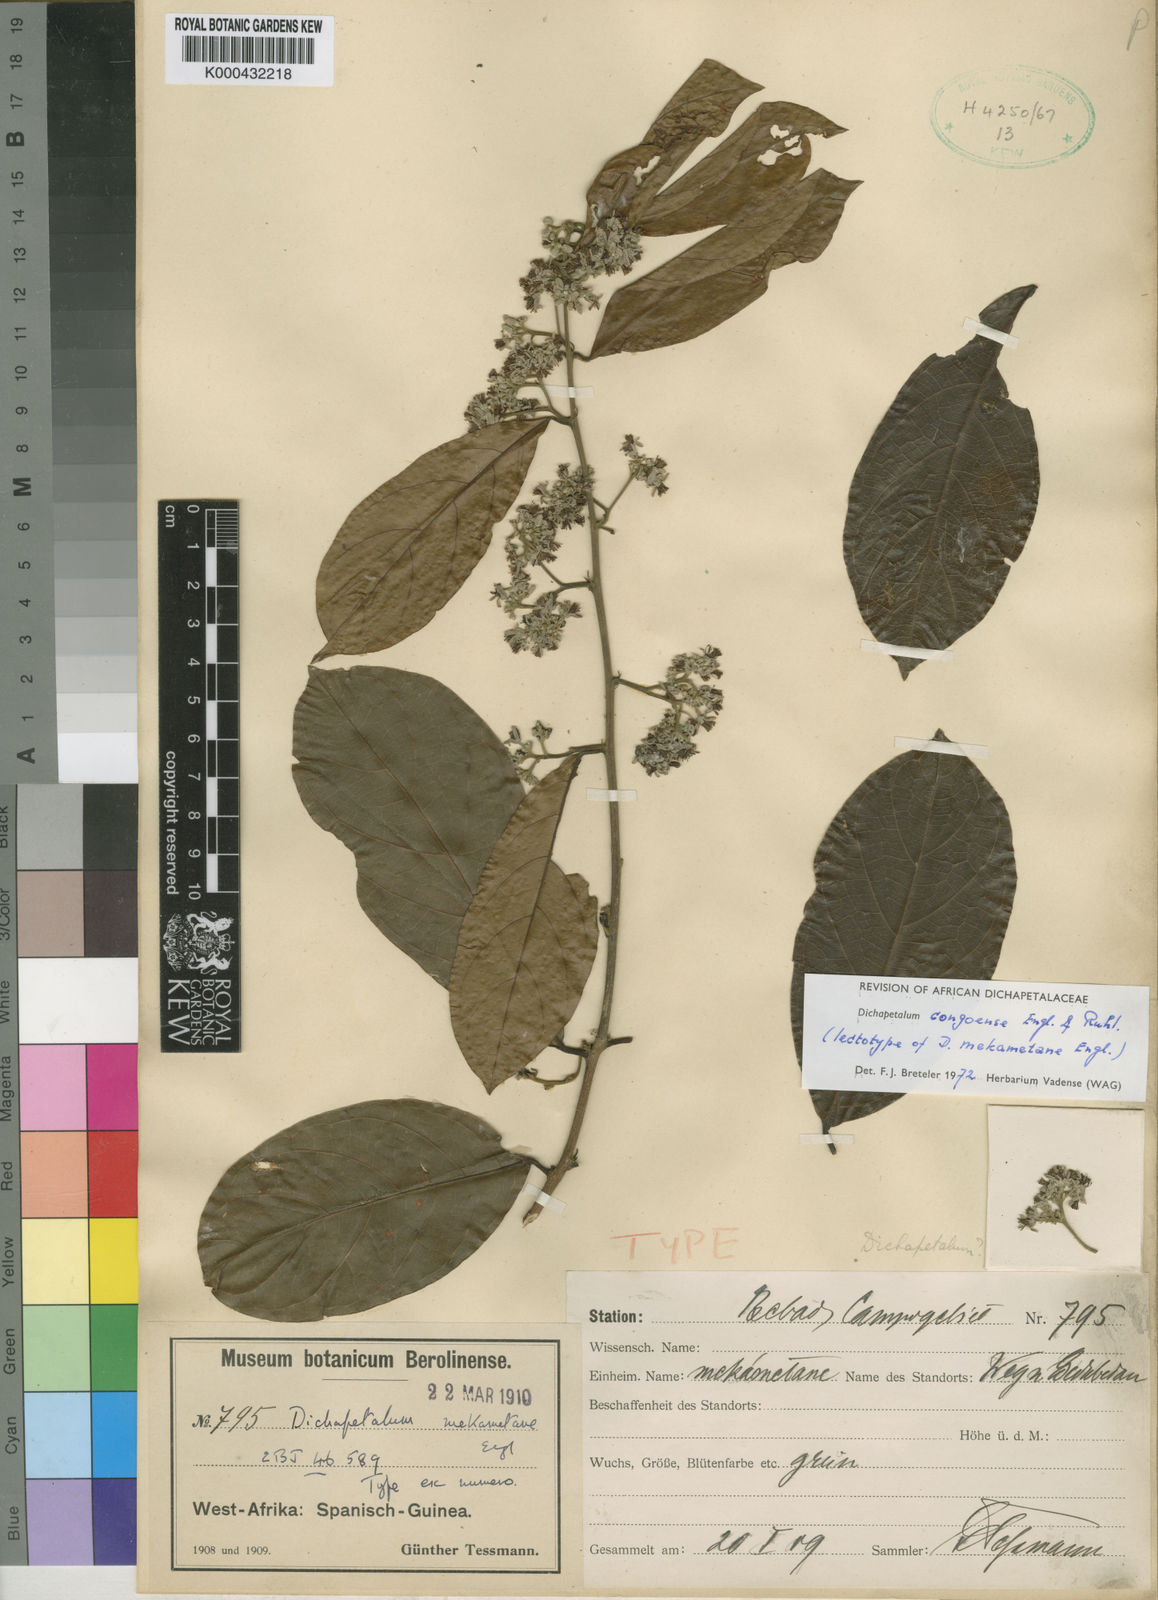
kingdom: Plantae
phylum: Tracheophyta
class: Magnoliopsida
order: Malpighiales
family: Dichapetalaceae
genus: Dichapetalum
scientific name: Dichapetalum congoense
